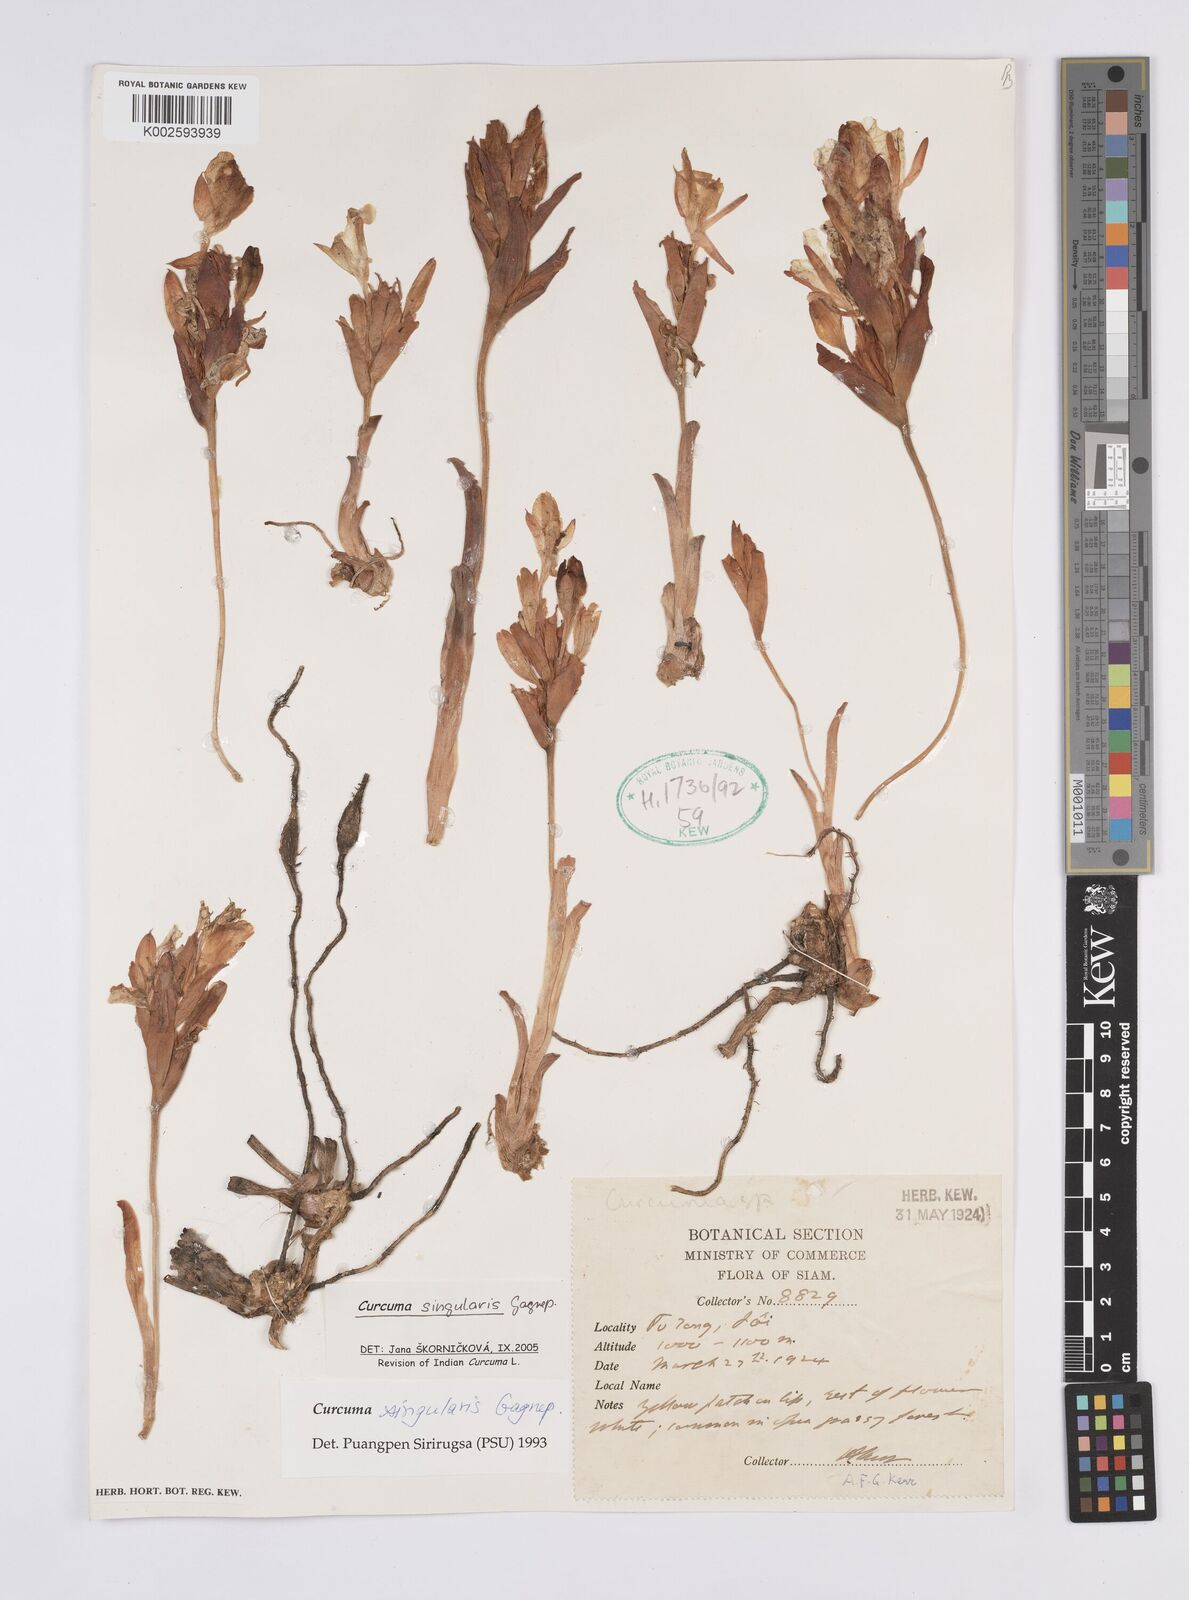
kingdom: Plantae
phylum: Tracheophyta
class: Liliopsida
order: Zingiberales
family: Zingiberaceae
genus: Curcuma
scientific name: Curcuma singularis
